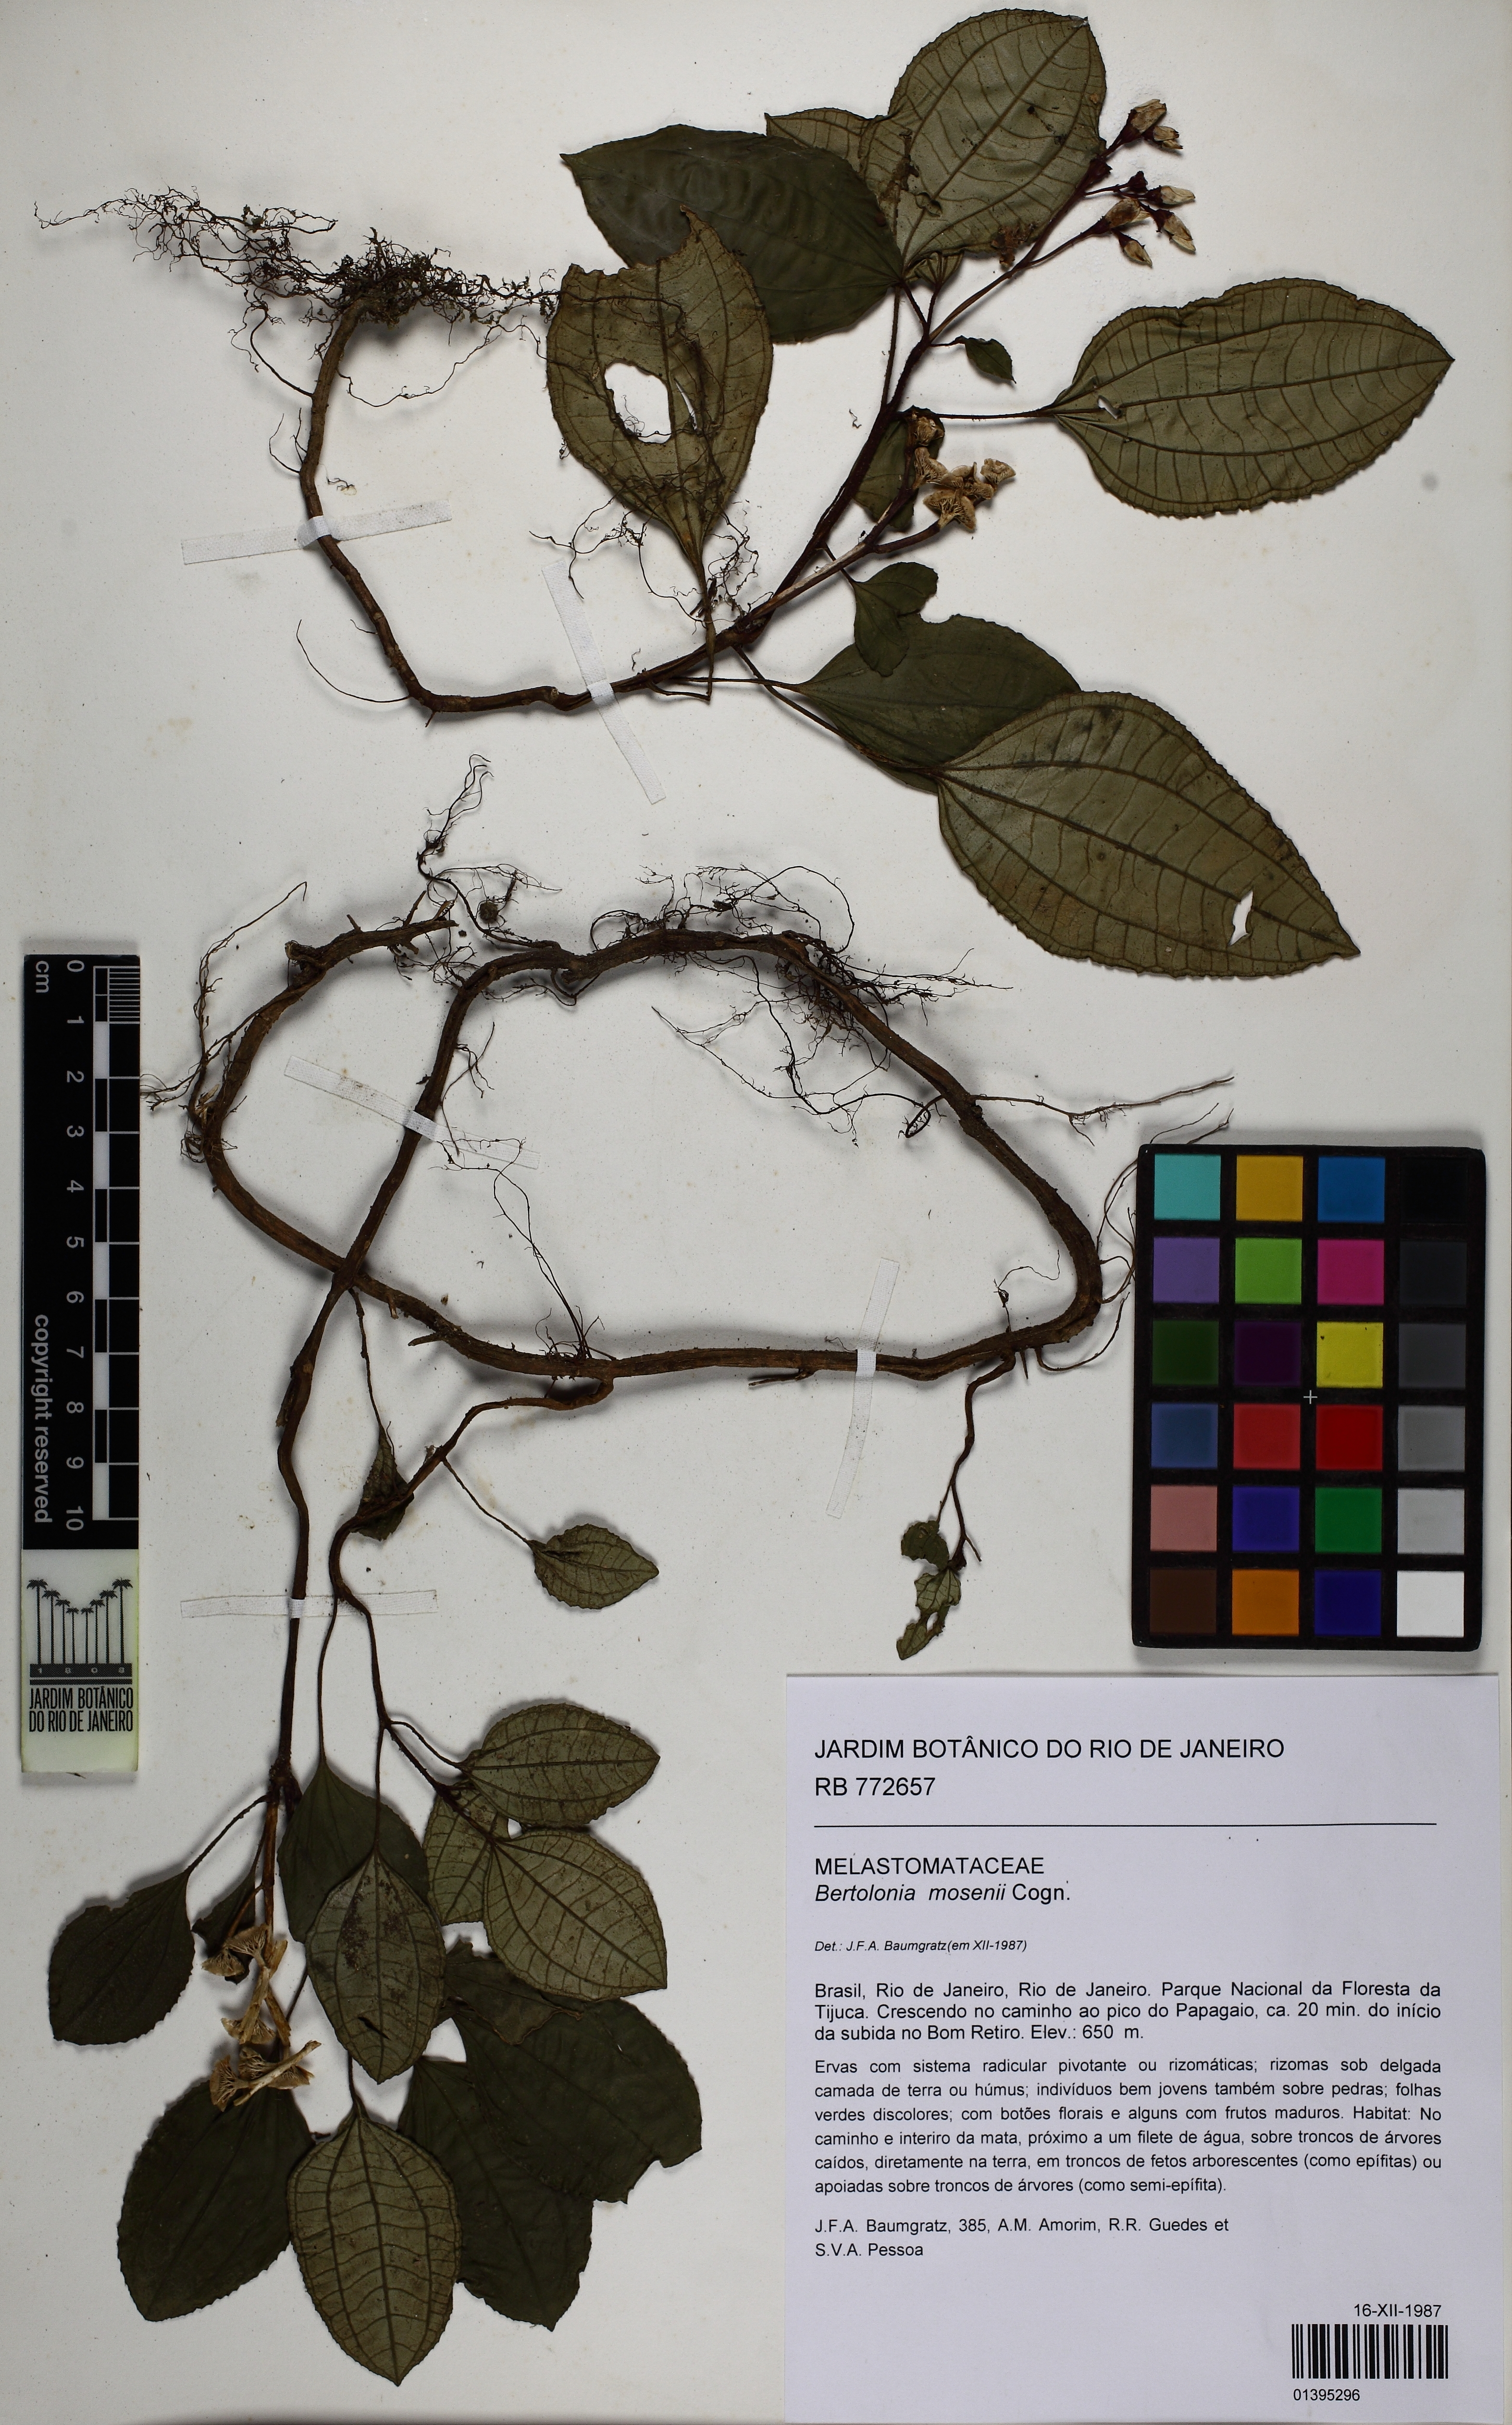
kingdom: Plantae
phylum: Tracheophyta
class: Magnoliopsida
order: Myrtales
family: Melastomataceae
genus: Bertolonia
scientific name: Bertolonia mosenii
